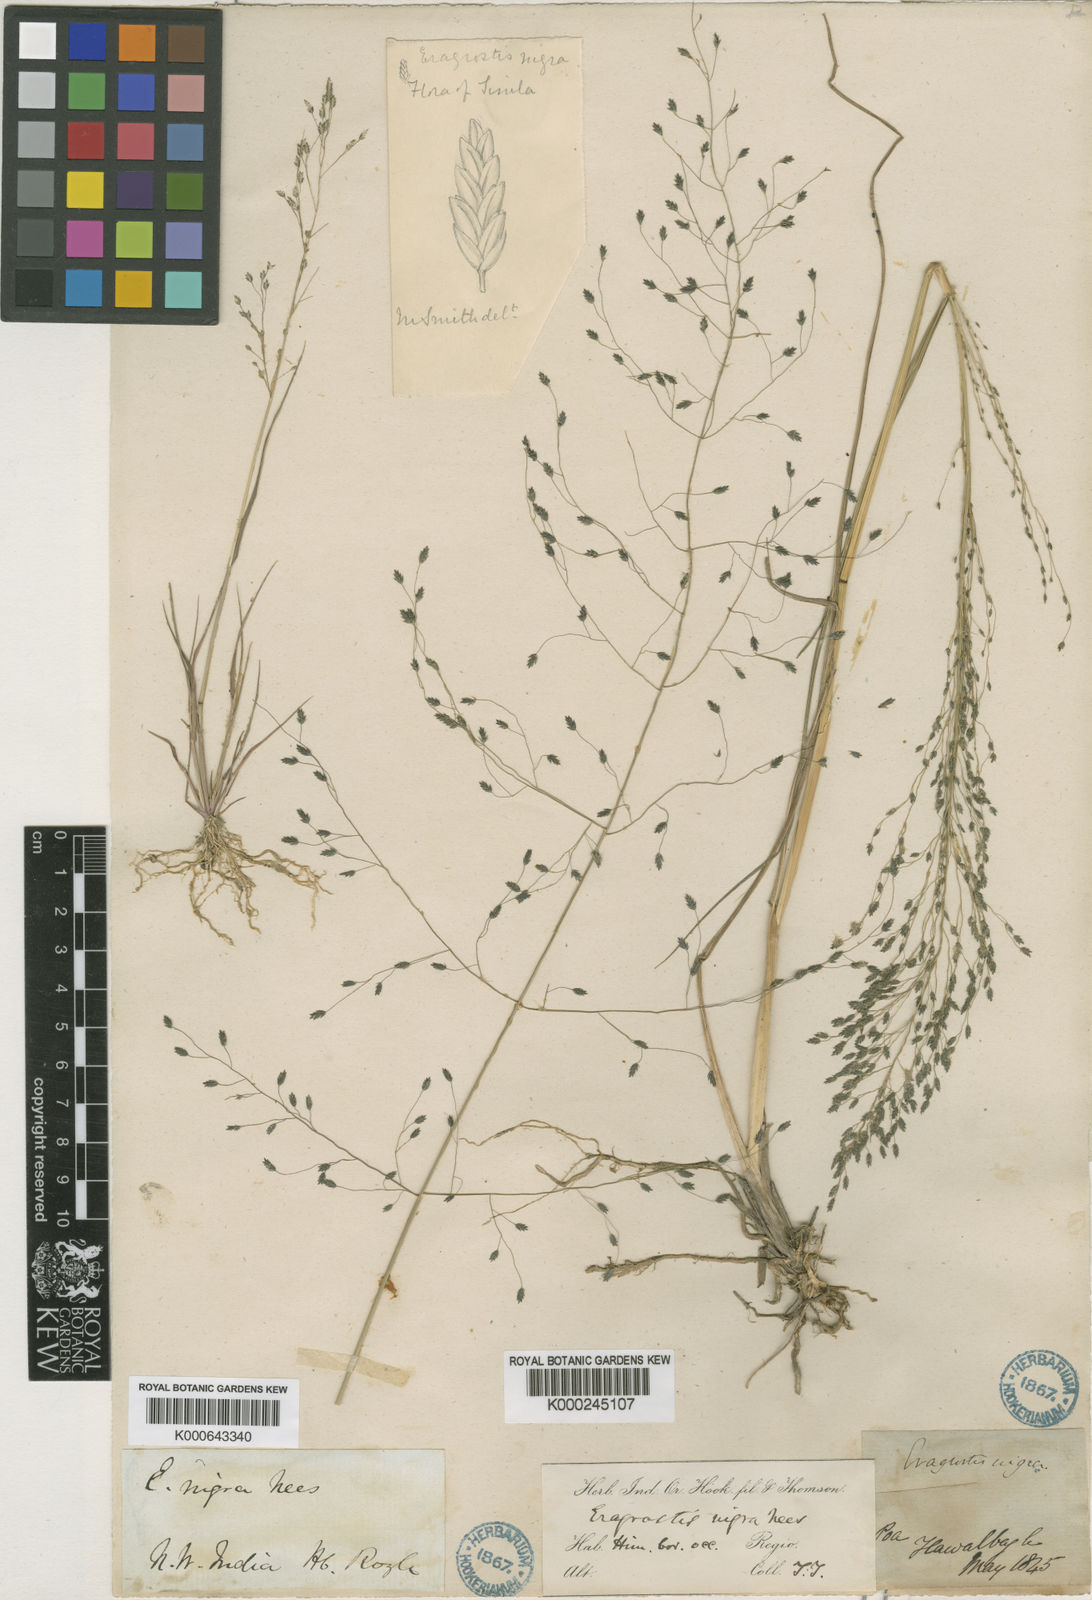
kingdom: Plantae
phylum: Tracheophyta
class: Liliopsida
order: Poales
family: Poaceae
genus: Eragrostis
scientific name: Eragrostis nigra
